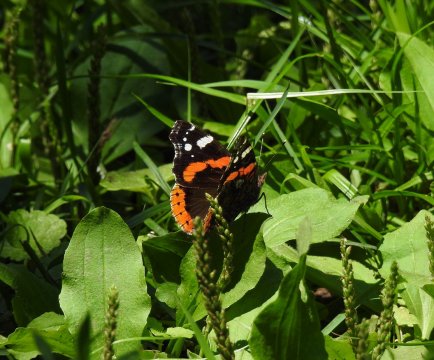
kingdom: Animalia
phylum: Arthropoda
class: Insecta
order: Lepidoptera
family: Nymphalidae
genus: Vanessa
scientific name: Vanessa atalanta
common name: Red Admiral
